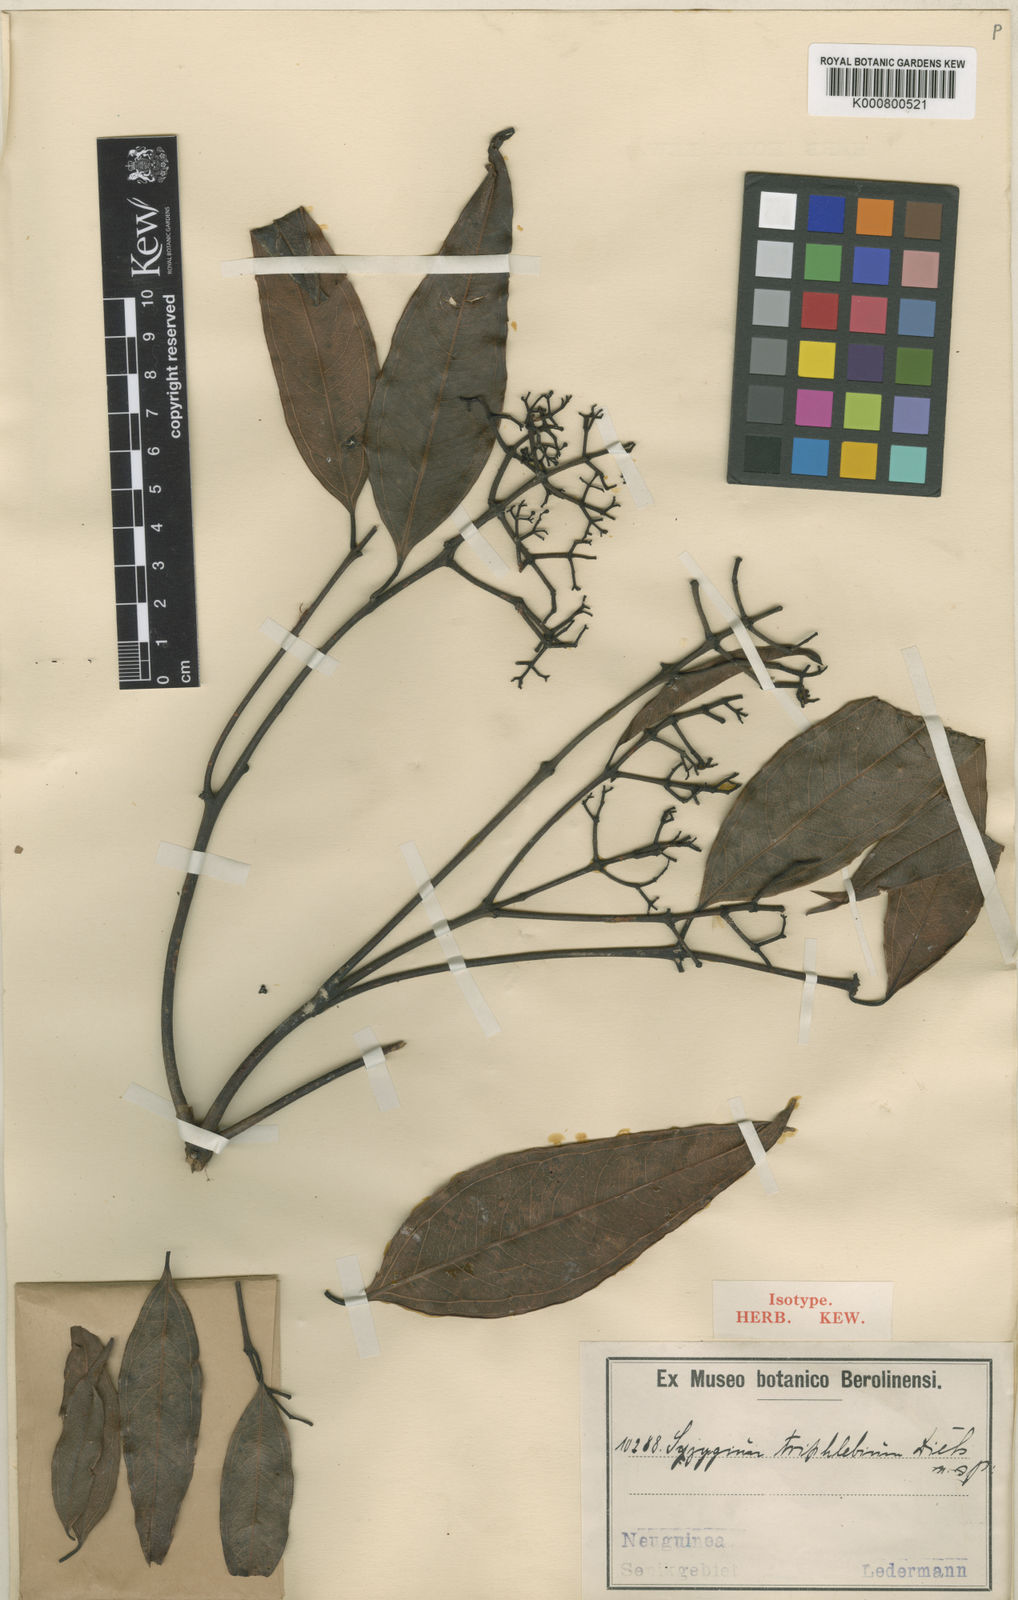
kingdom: Plantae
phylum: Tracheophyta
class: Magnoliopsida
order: Myrtales
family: Myrtaceae
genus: Syzygium
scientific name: Syzygium triphlebium
